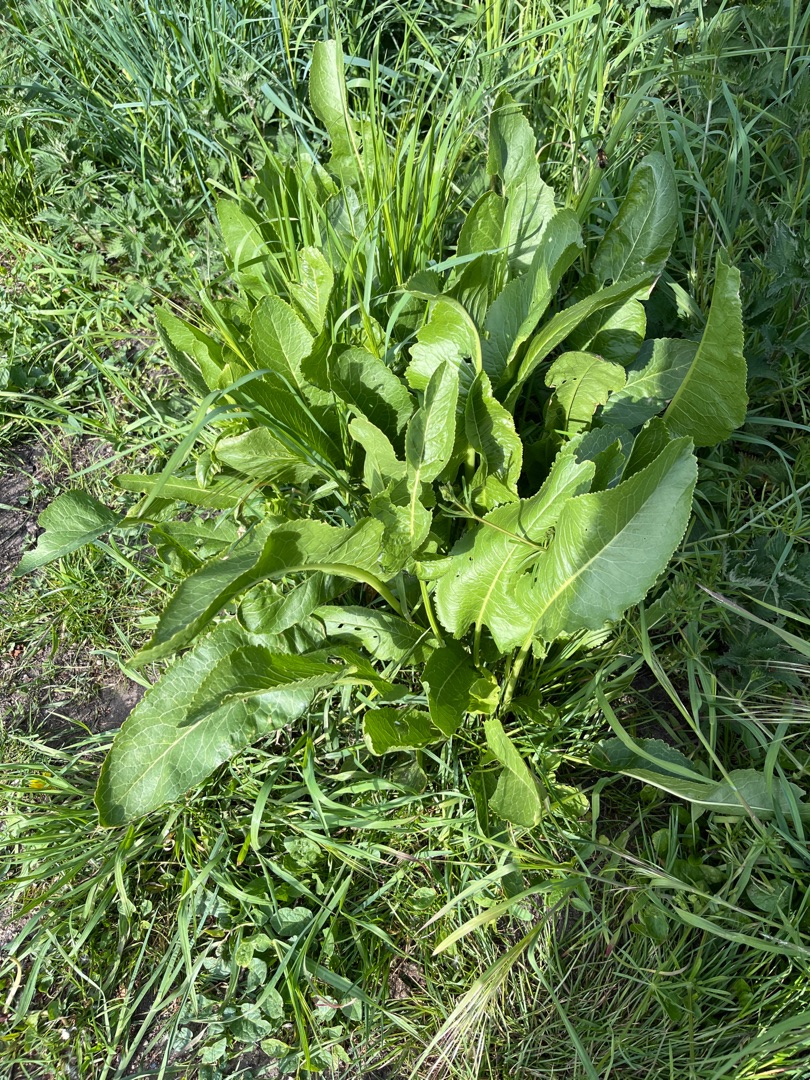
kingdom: Plantae
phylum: Tracheophyta
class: Magnoliopsida
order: Brassicales
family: Brassicaceae
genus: Armoracia
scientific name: Armoracia rusticana
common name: Peberrod
